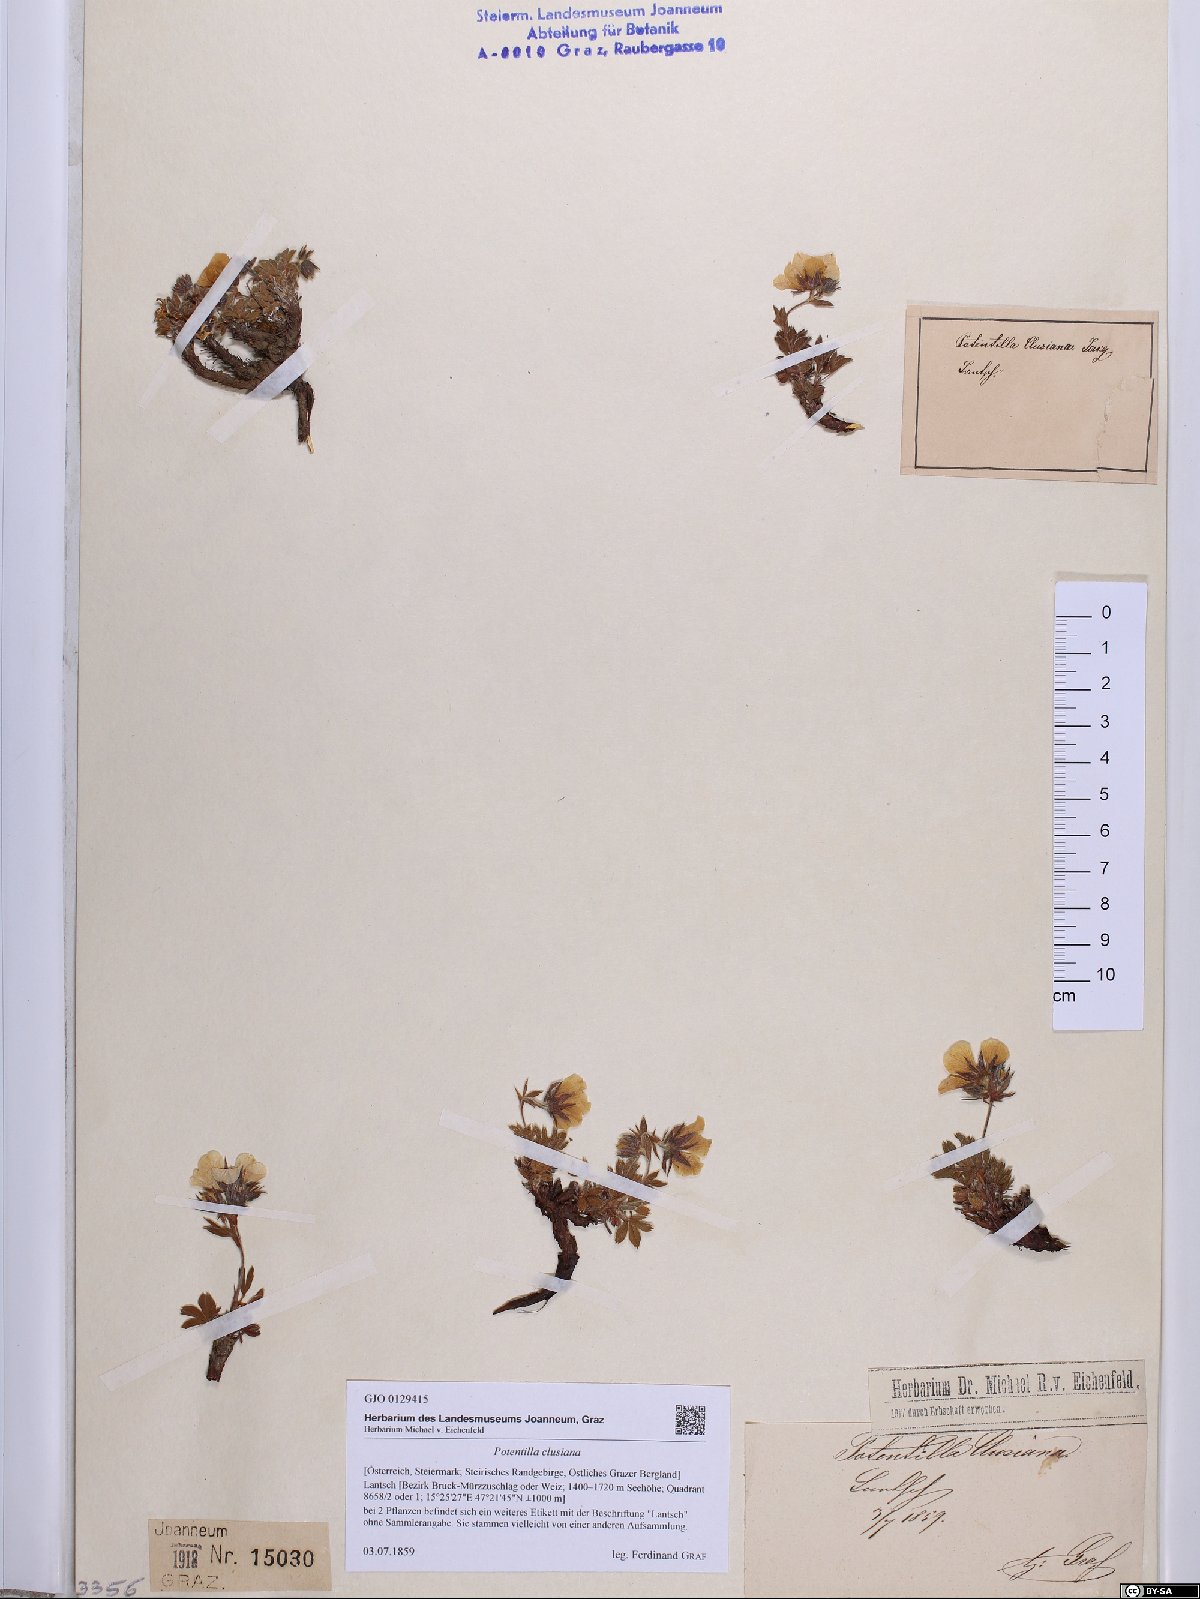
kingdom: Plantae
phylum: Tracheophyta
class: Magnoliopsida
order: Rosales
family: Rosaceae
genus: Potentilla
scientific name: Potentilla clusiana
